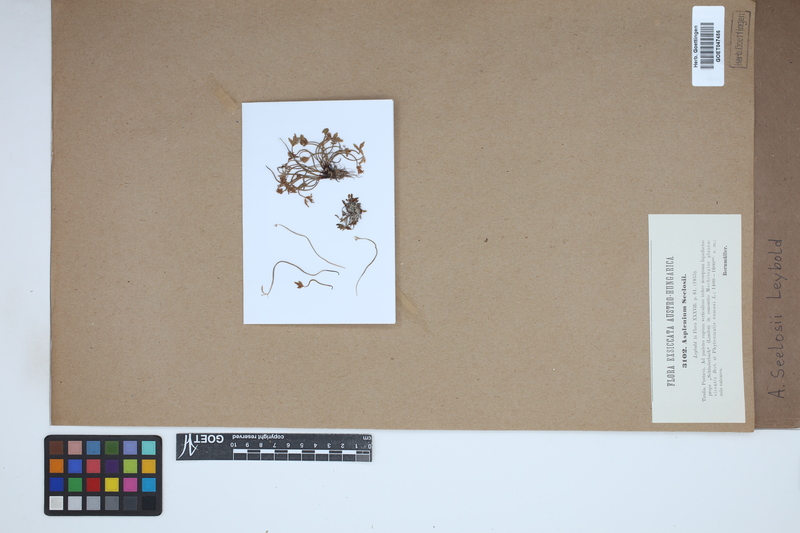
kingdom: Plantae
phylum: Tracheophyta
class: Polypodiopsida
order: Polypodiales
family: Aspleniaceae
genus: Asplenium
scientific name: Asplenium seelosii
